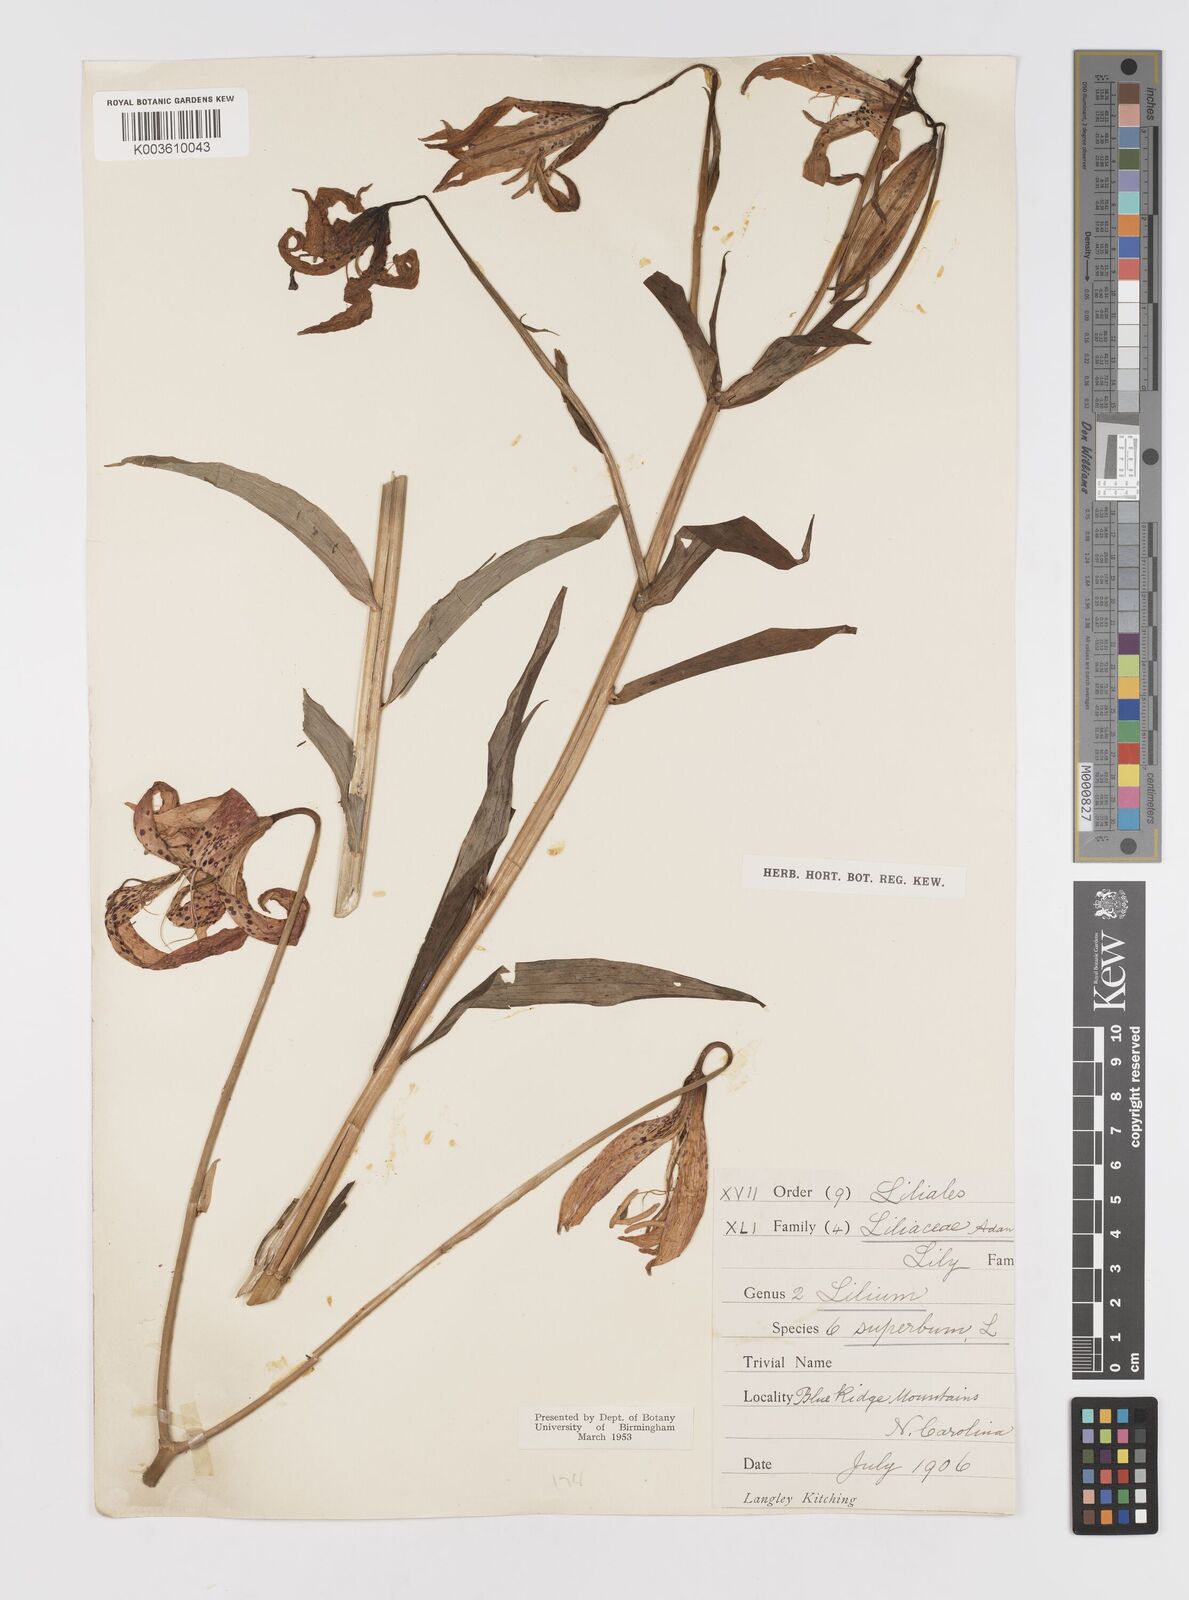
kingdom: Plantae
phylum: Tracheophyta
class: Liliopsida
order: Liliales
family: Liliaceae
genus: Lilium
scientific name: Lilium superbum
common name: American turk's-cap lily
